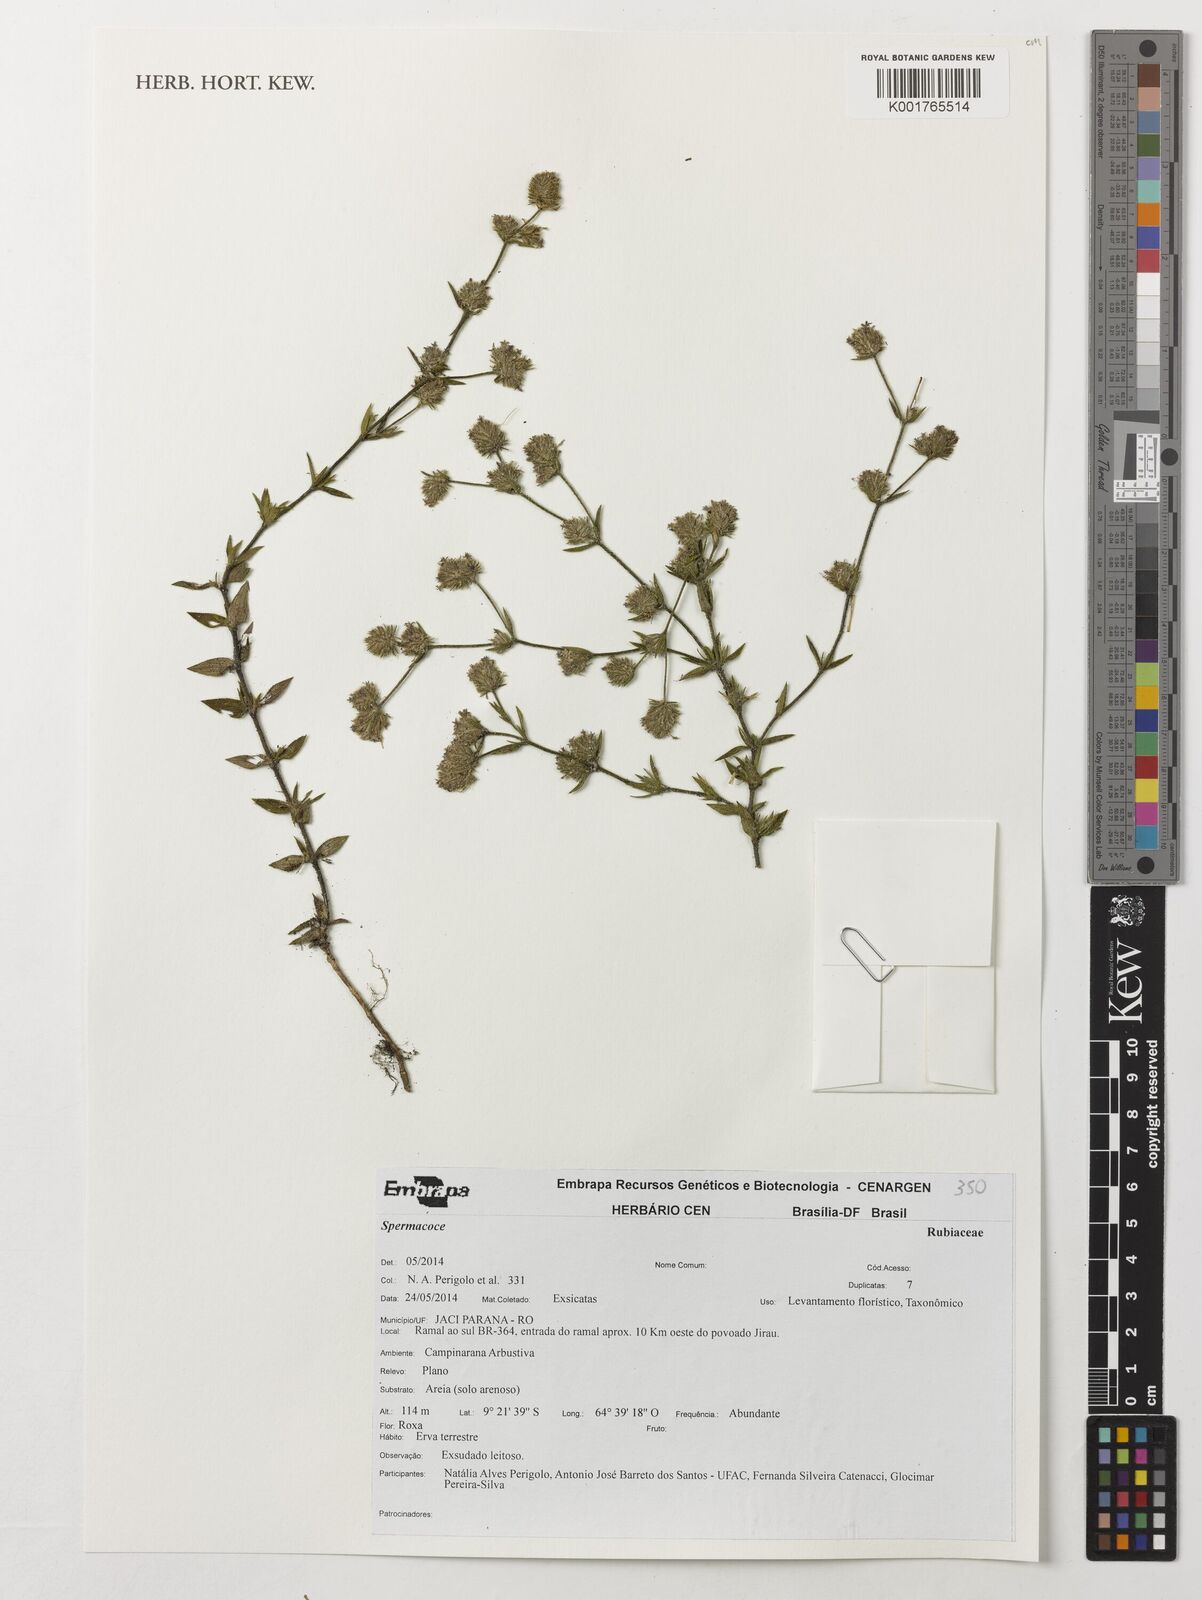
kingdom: Plantae
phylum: Tracheophyta
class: Magnoliopsida
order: Gentianales
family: Rubiaceae
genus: Spermacoce
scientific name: Spermacoce
